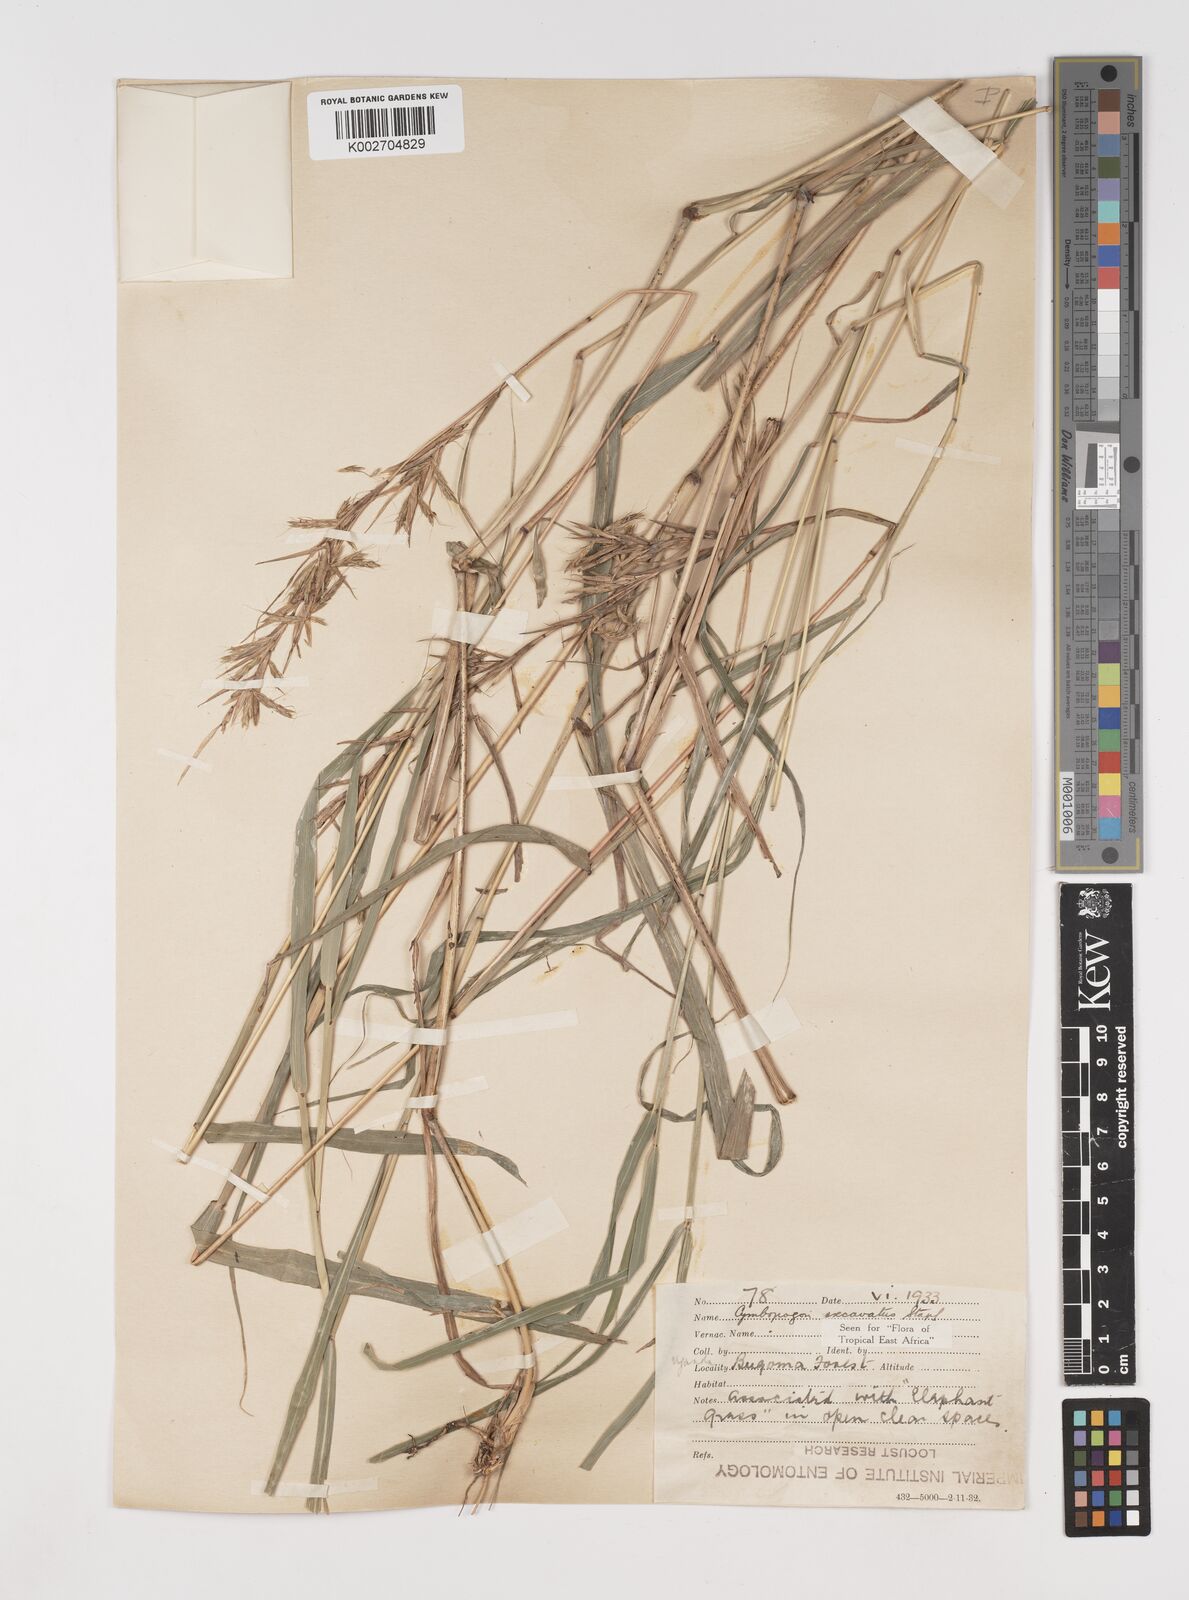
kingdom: Plantae
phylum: Tracheophyta
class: Liliopsida
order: Poales
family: Poaceae
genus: Cymbopogon
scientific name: Cymbopogon caesius
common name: Kachi grass
